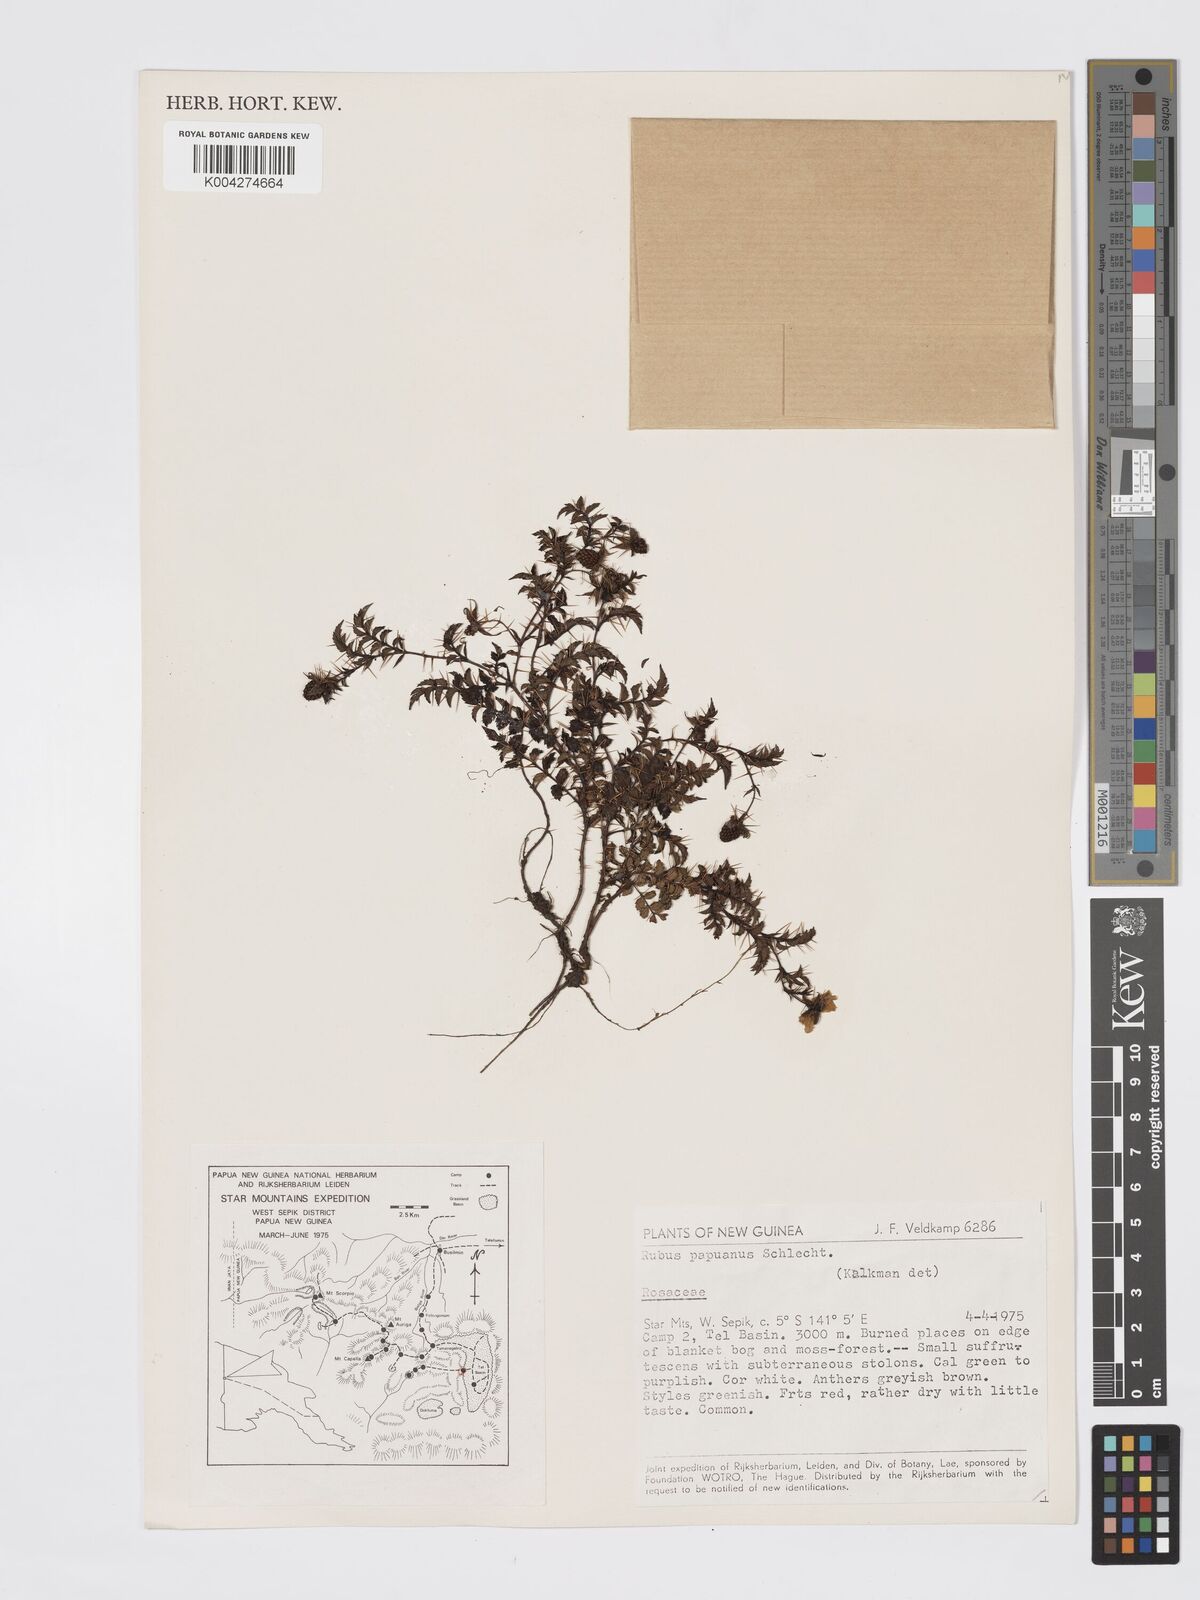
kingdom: Plantae
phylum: Tracheophyta
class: Magnoliopsida
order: Rosales
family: Rosaceae
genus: Rubus
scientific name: Rubus papuanus
